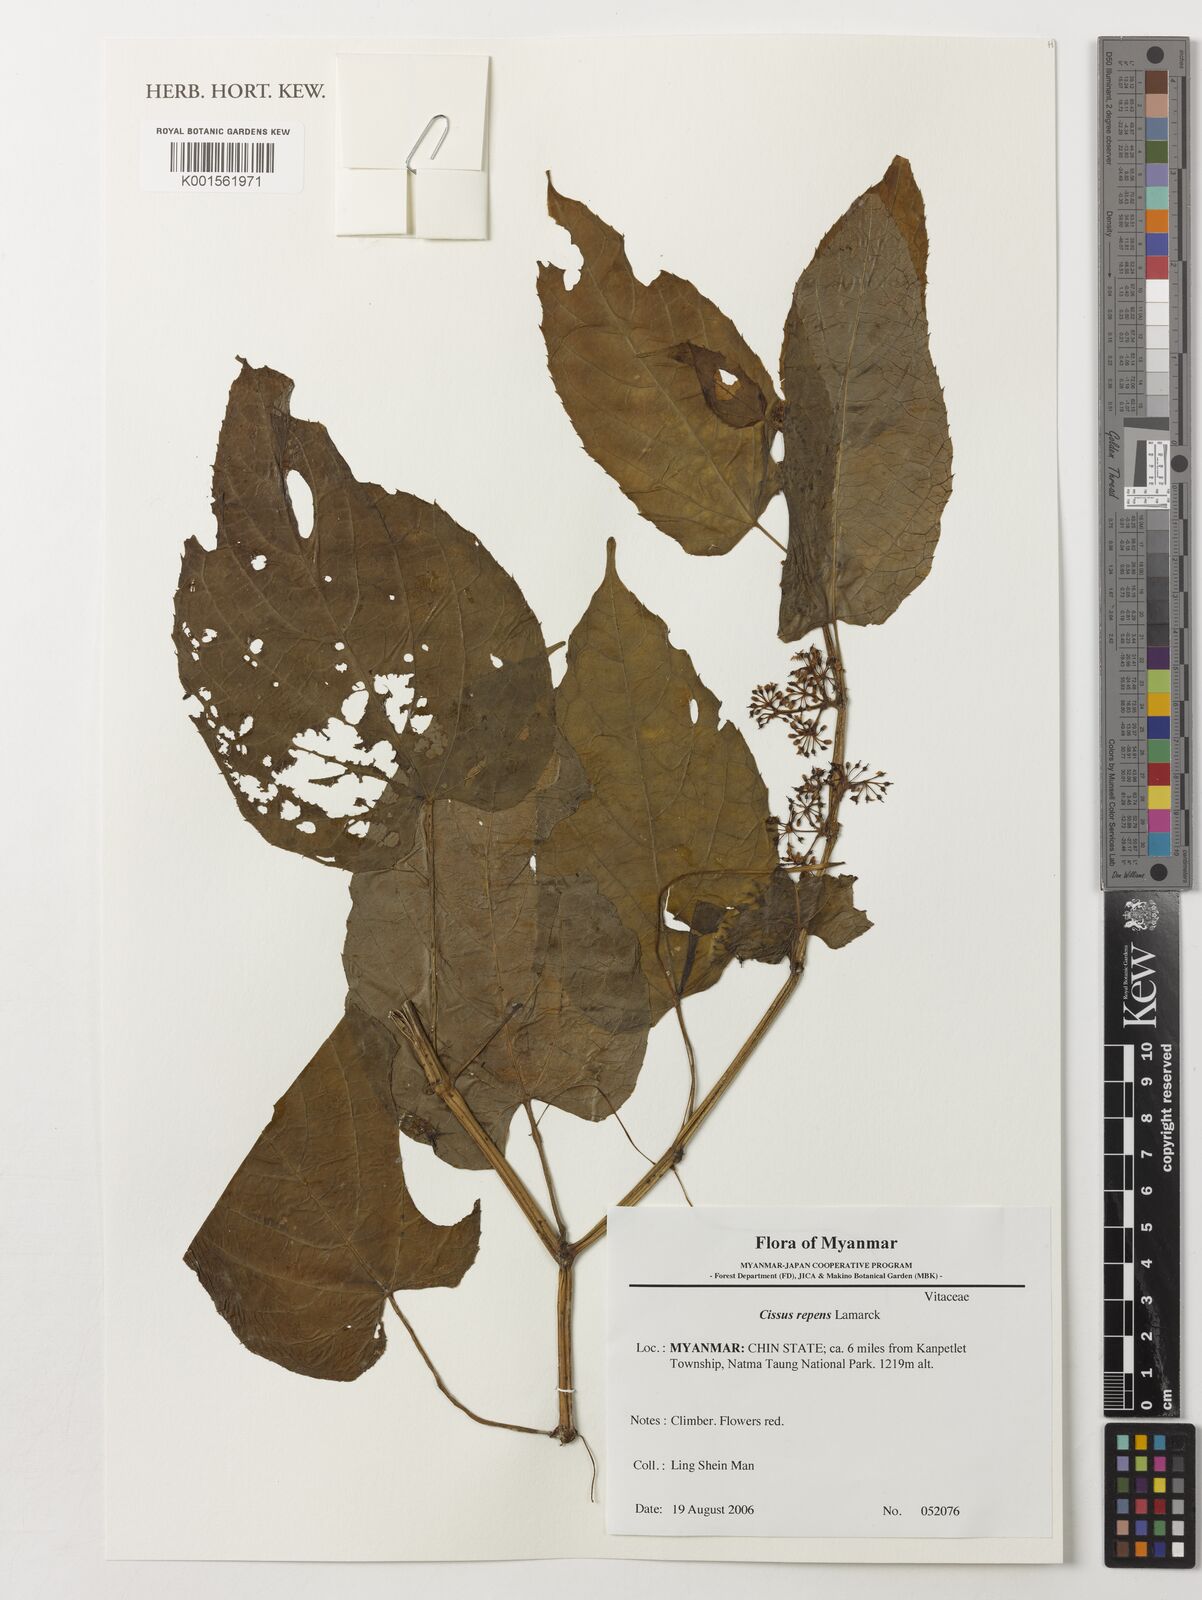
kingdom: Plantae
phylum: Tracheophyta
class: Magnoliopsida
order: Vitales
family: Vitaceae
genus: Cissus
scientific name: Cissus repens
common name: Cissus
